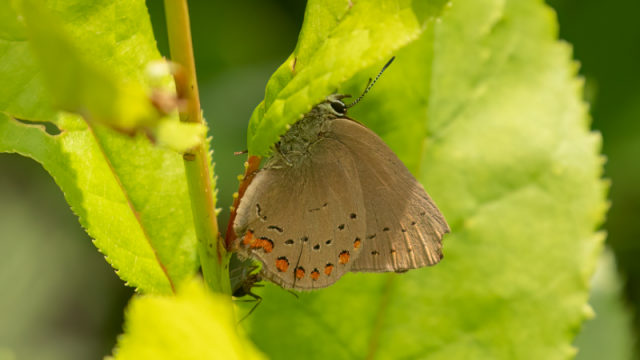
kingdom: Animalia
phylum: Arthropoda
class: Insecta
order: Lepidoptera
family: Lycaenidae
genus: Harkenclenus
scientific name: Harkenclenus titus
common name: Coral Hairstreak
